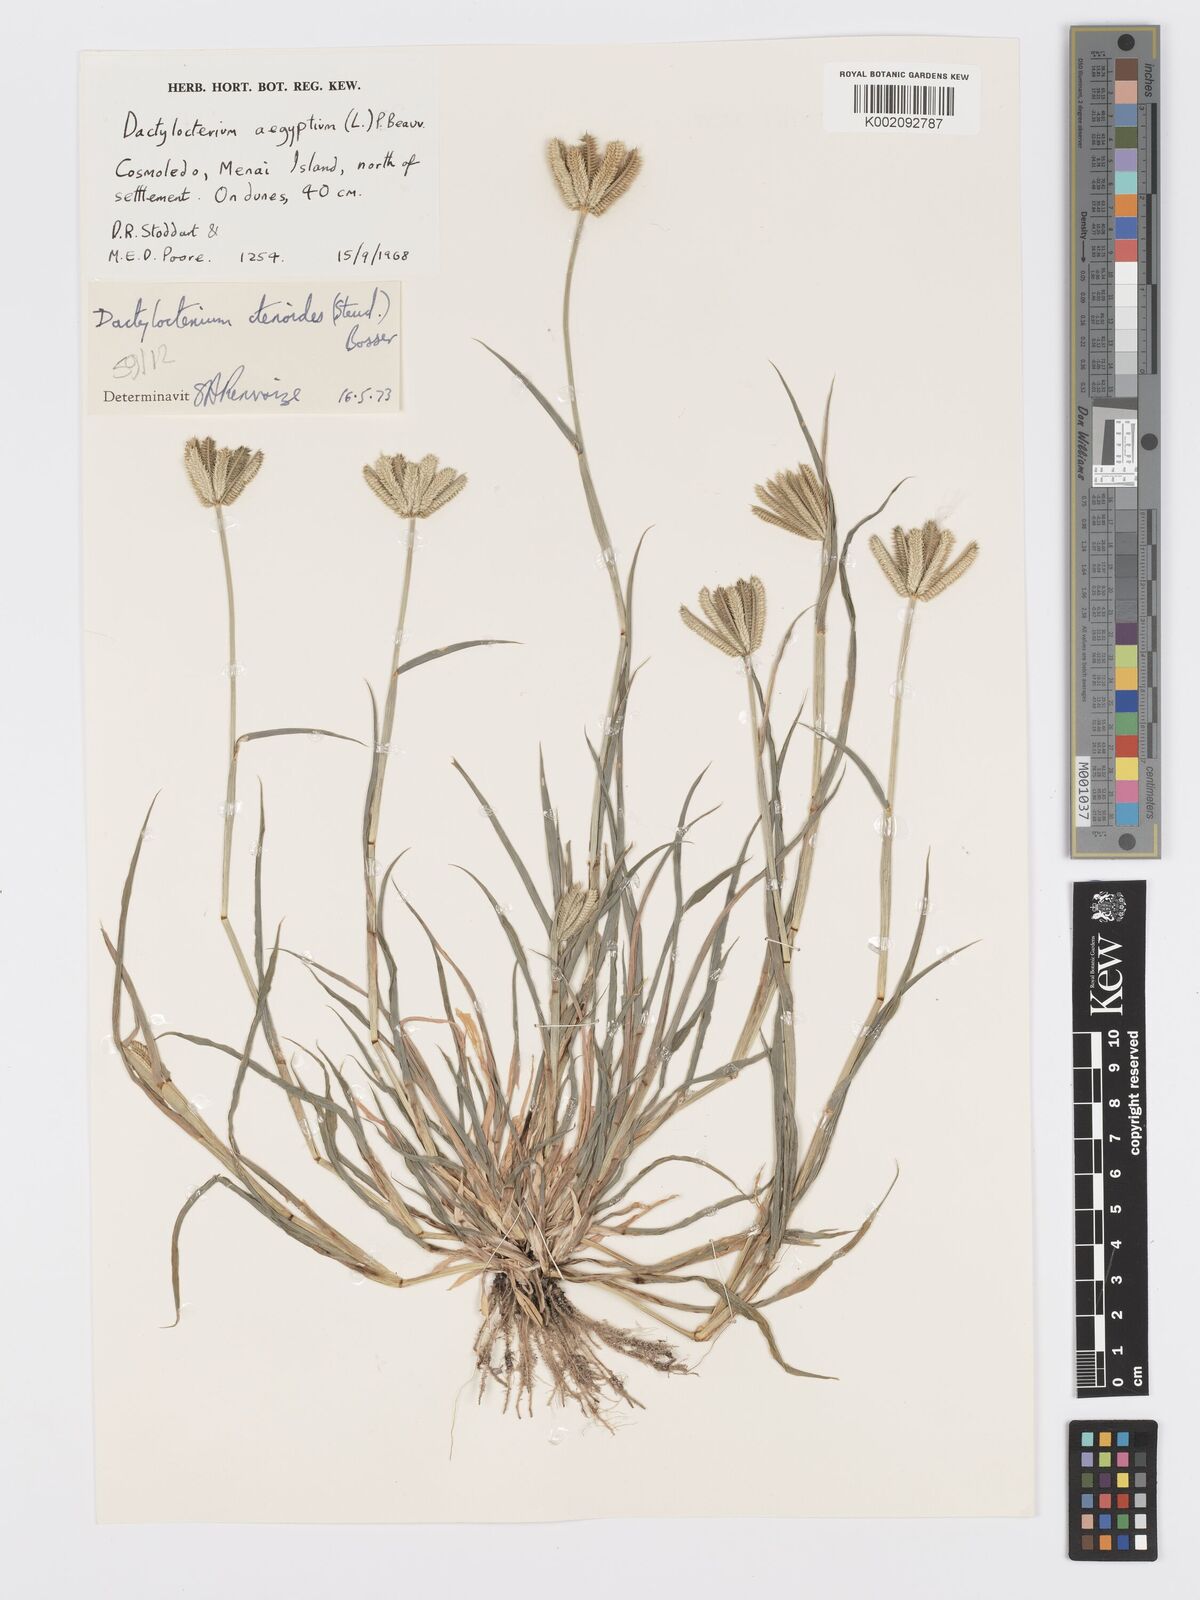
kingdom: Plantae
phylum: Tracheophyta
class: Liliopsida
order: Poales
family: Poaceae
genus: Dactyloctenium
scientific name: Dactyloctenium ctenoides
